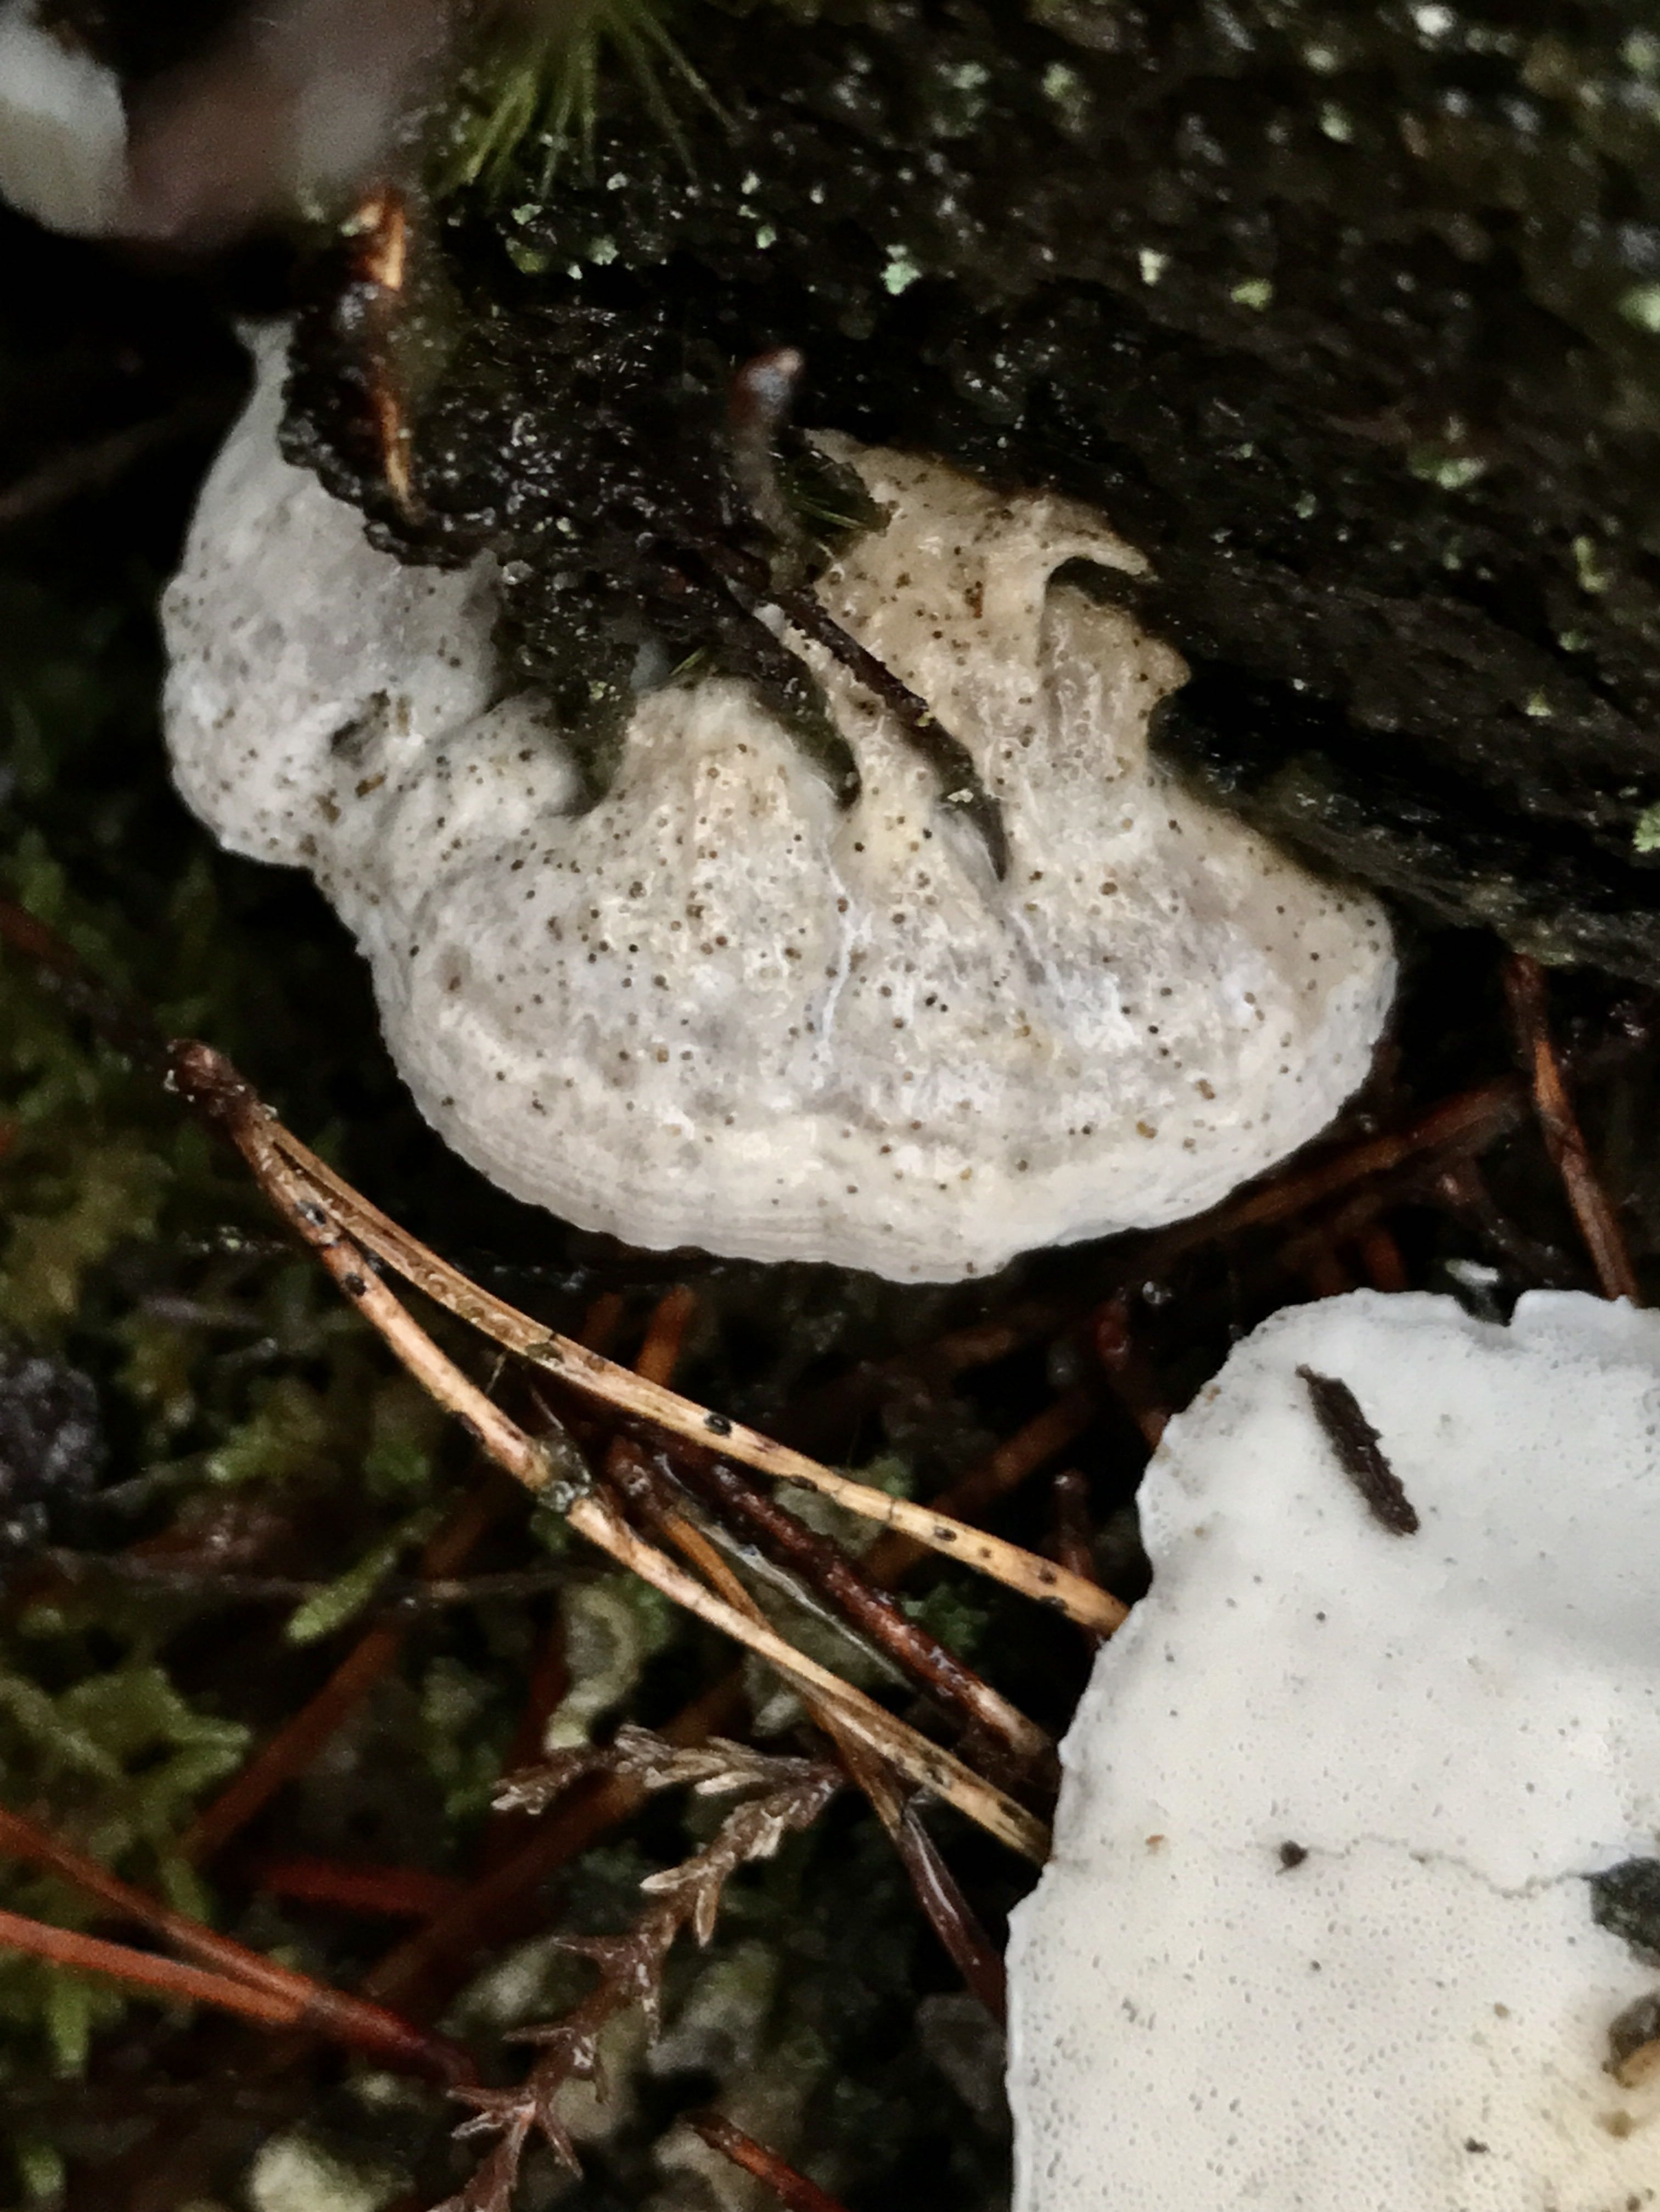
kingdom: Fungi
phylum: Basidiomycota
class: Agaricomycetes
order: Polyporales
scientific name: Polyporales
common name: poresvampordenen
